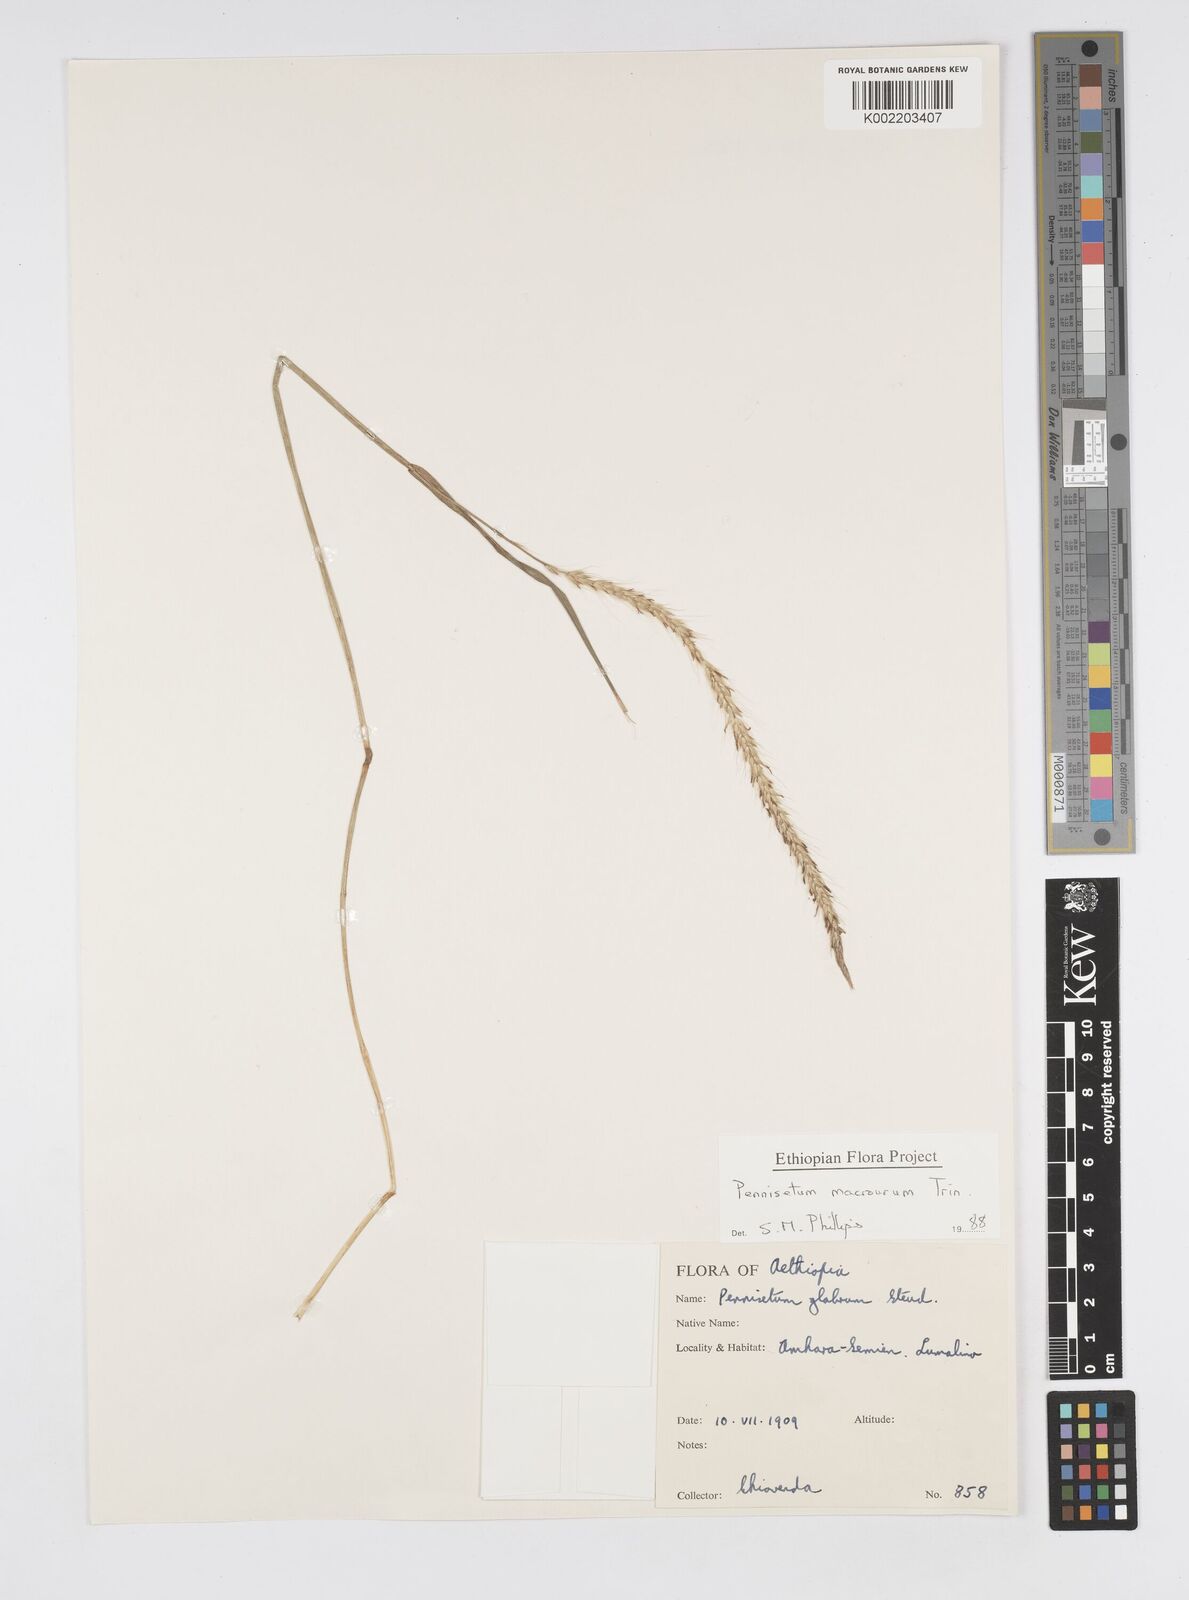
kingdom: Plantae
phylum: Tracheophyta
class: Liliopsida
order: Poales
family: Poaceae
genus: Cenchrus
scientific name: Cenchrus caudatus
